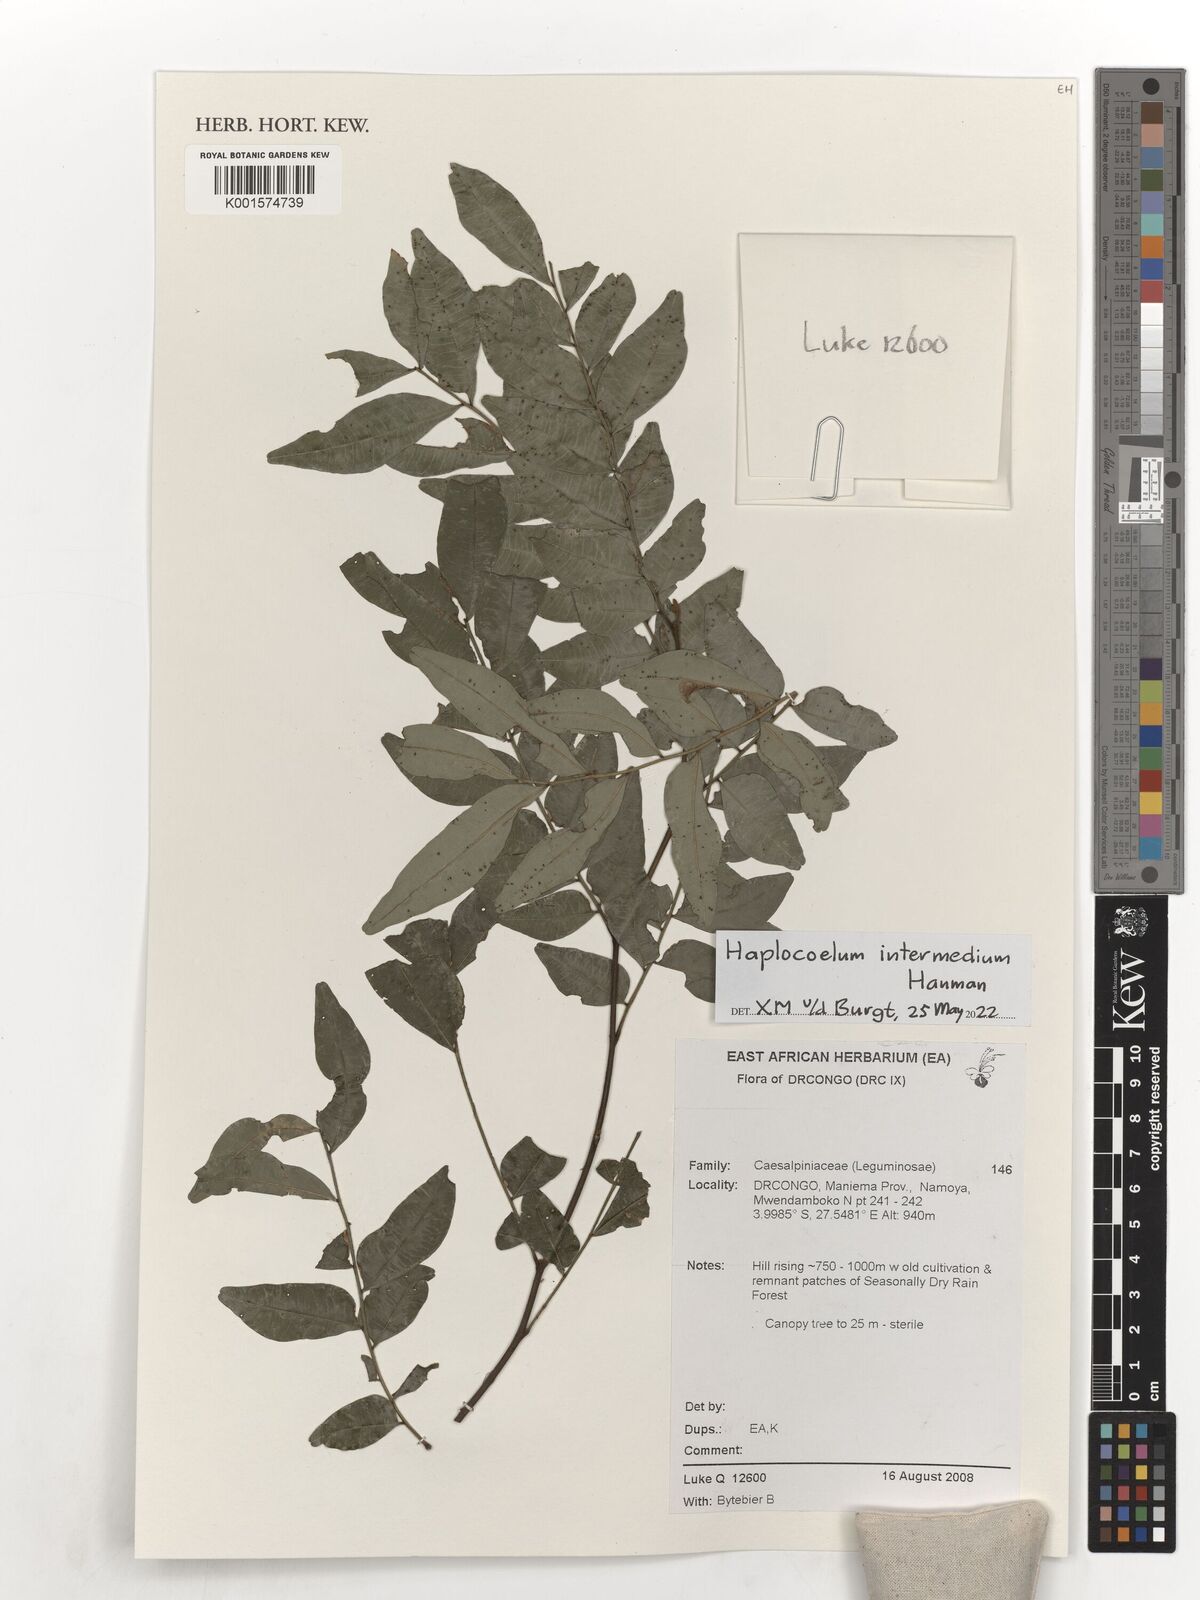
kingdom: Plantae
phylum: Tracheophyta
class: Magnoliopsida
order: Sapindales
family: Sapindaceae
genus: Haplocoelum
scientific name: Haplocoelum intermedium
